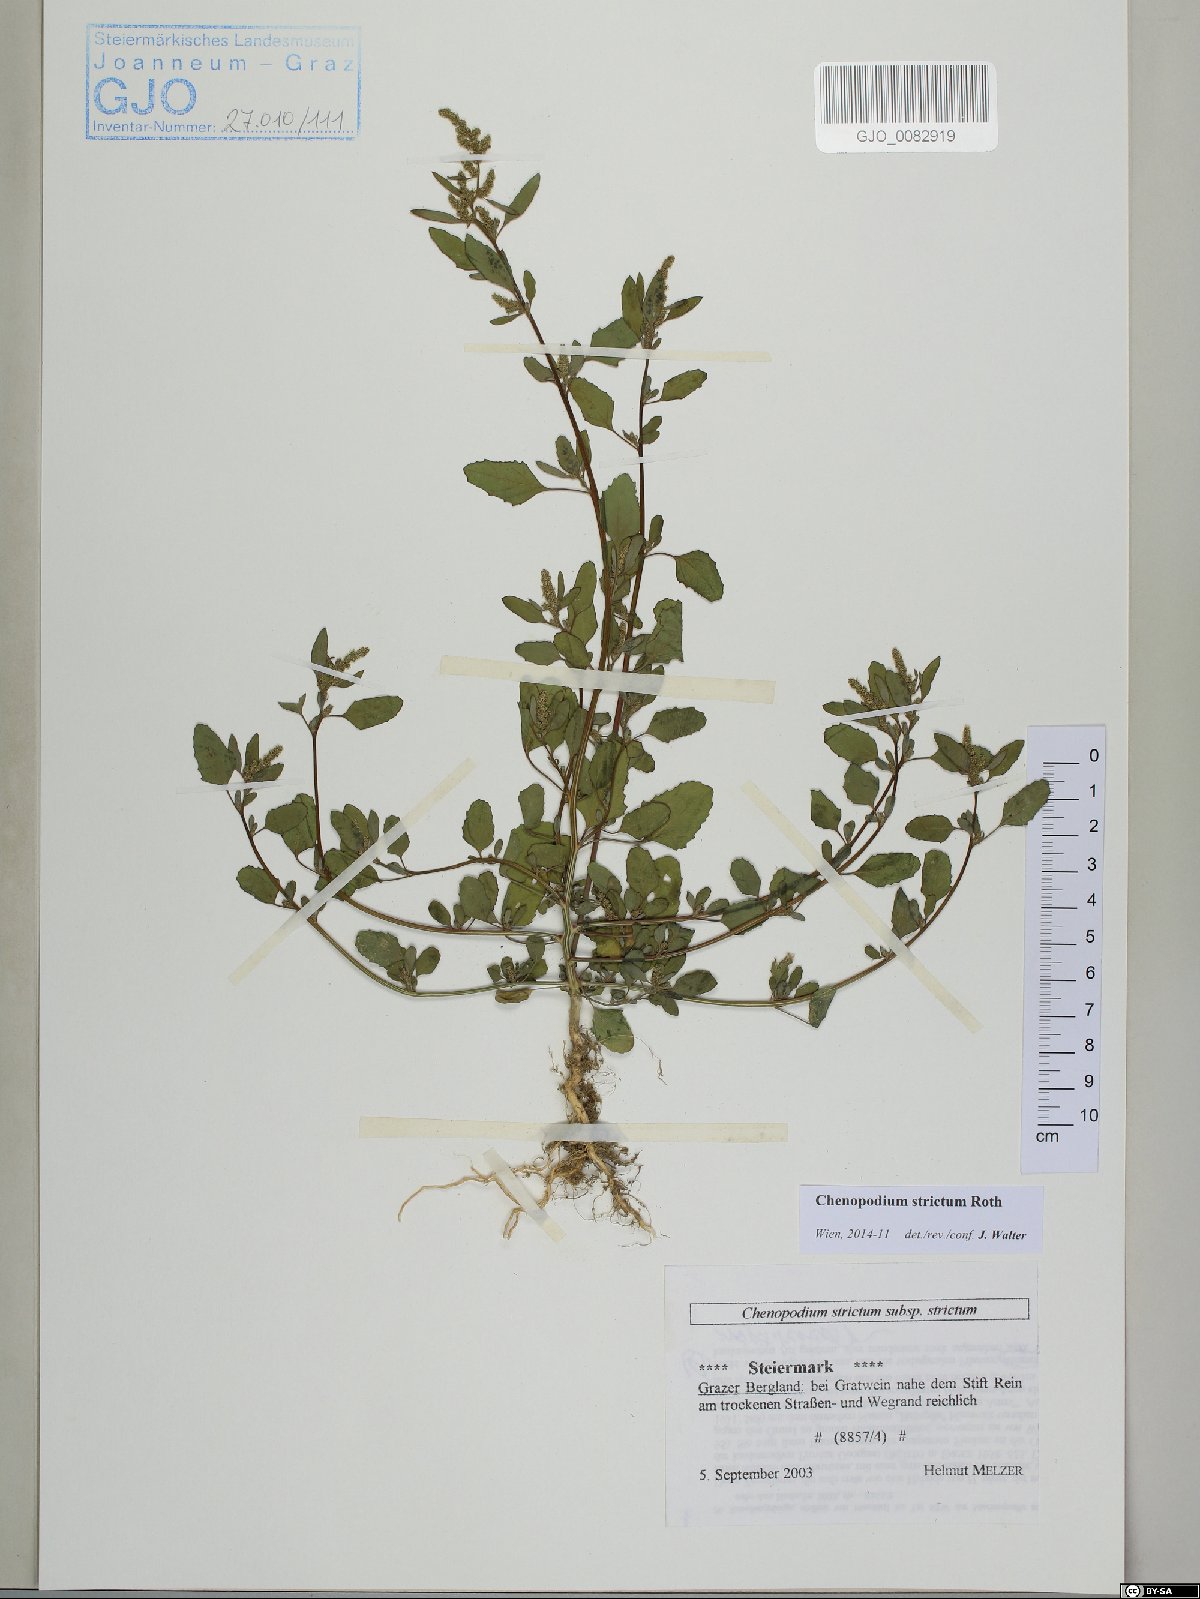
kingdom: Plantae
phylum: Tracheophyta
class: Magnoliopsida
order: Caryophyllales
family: Amaranthaceae
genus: Chenopodium
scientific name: Chenopodium album
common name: Fat-hen
